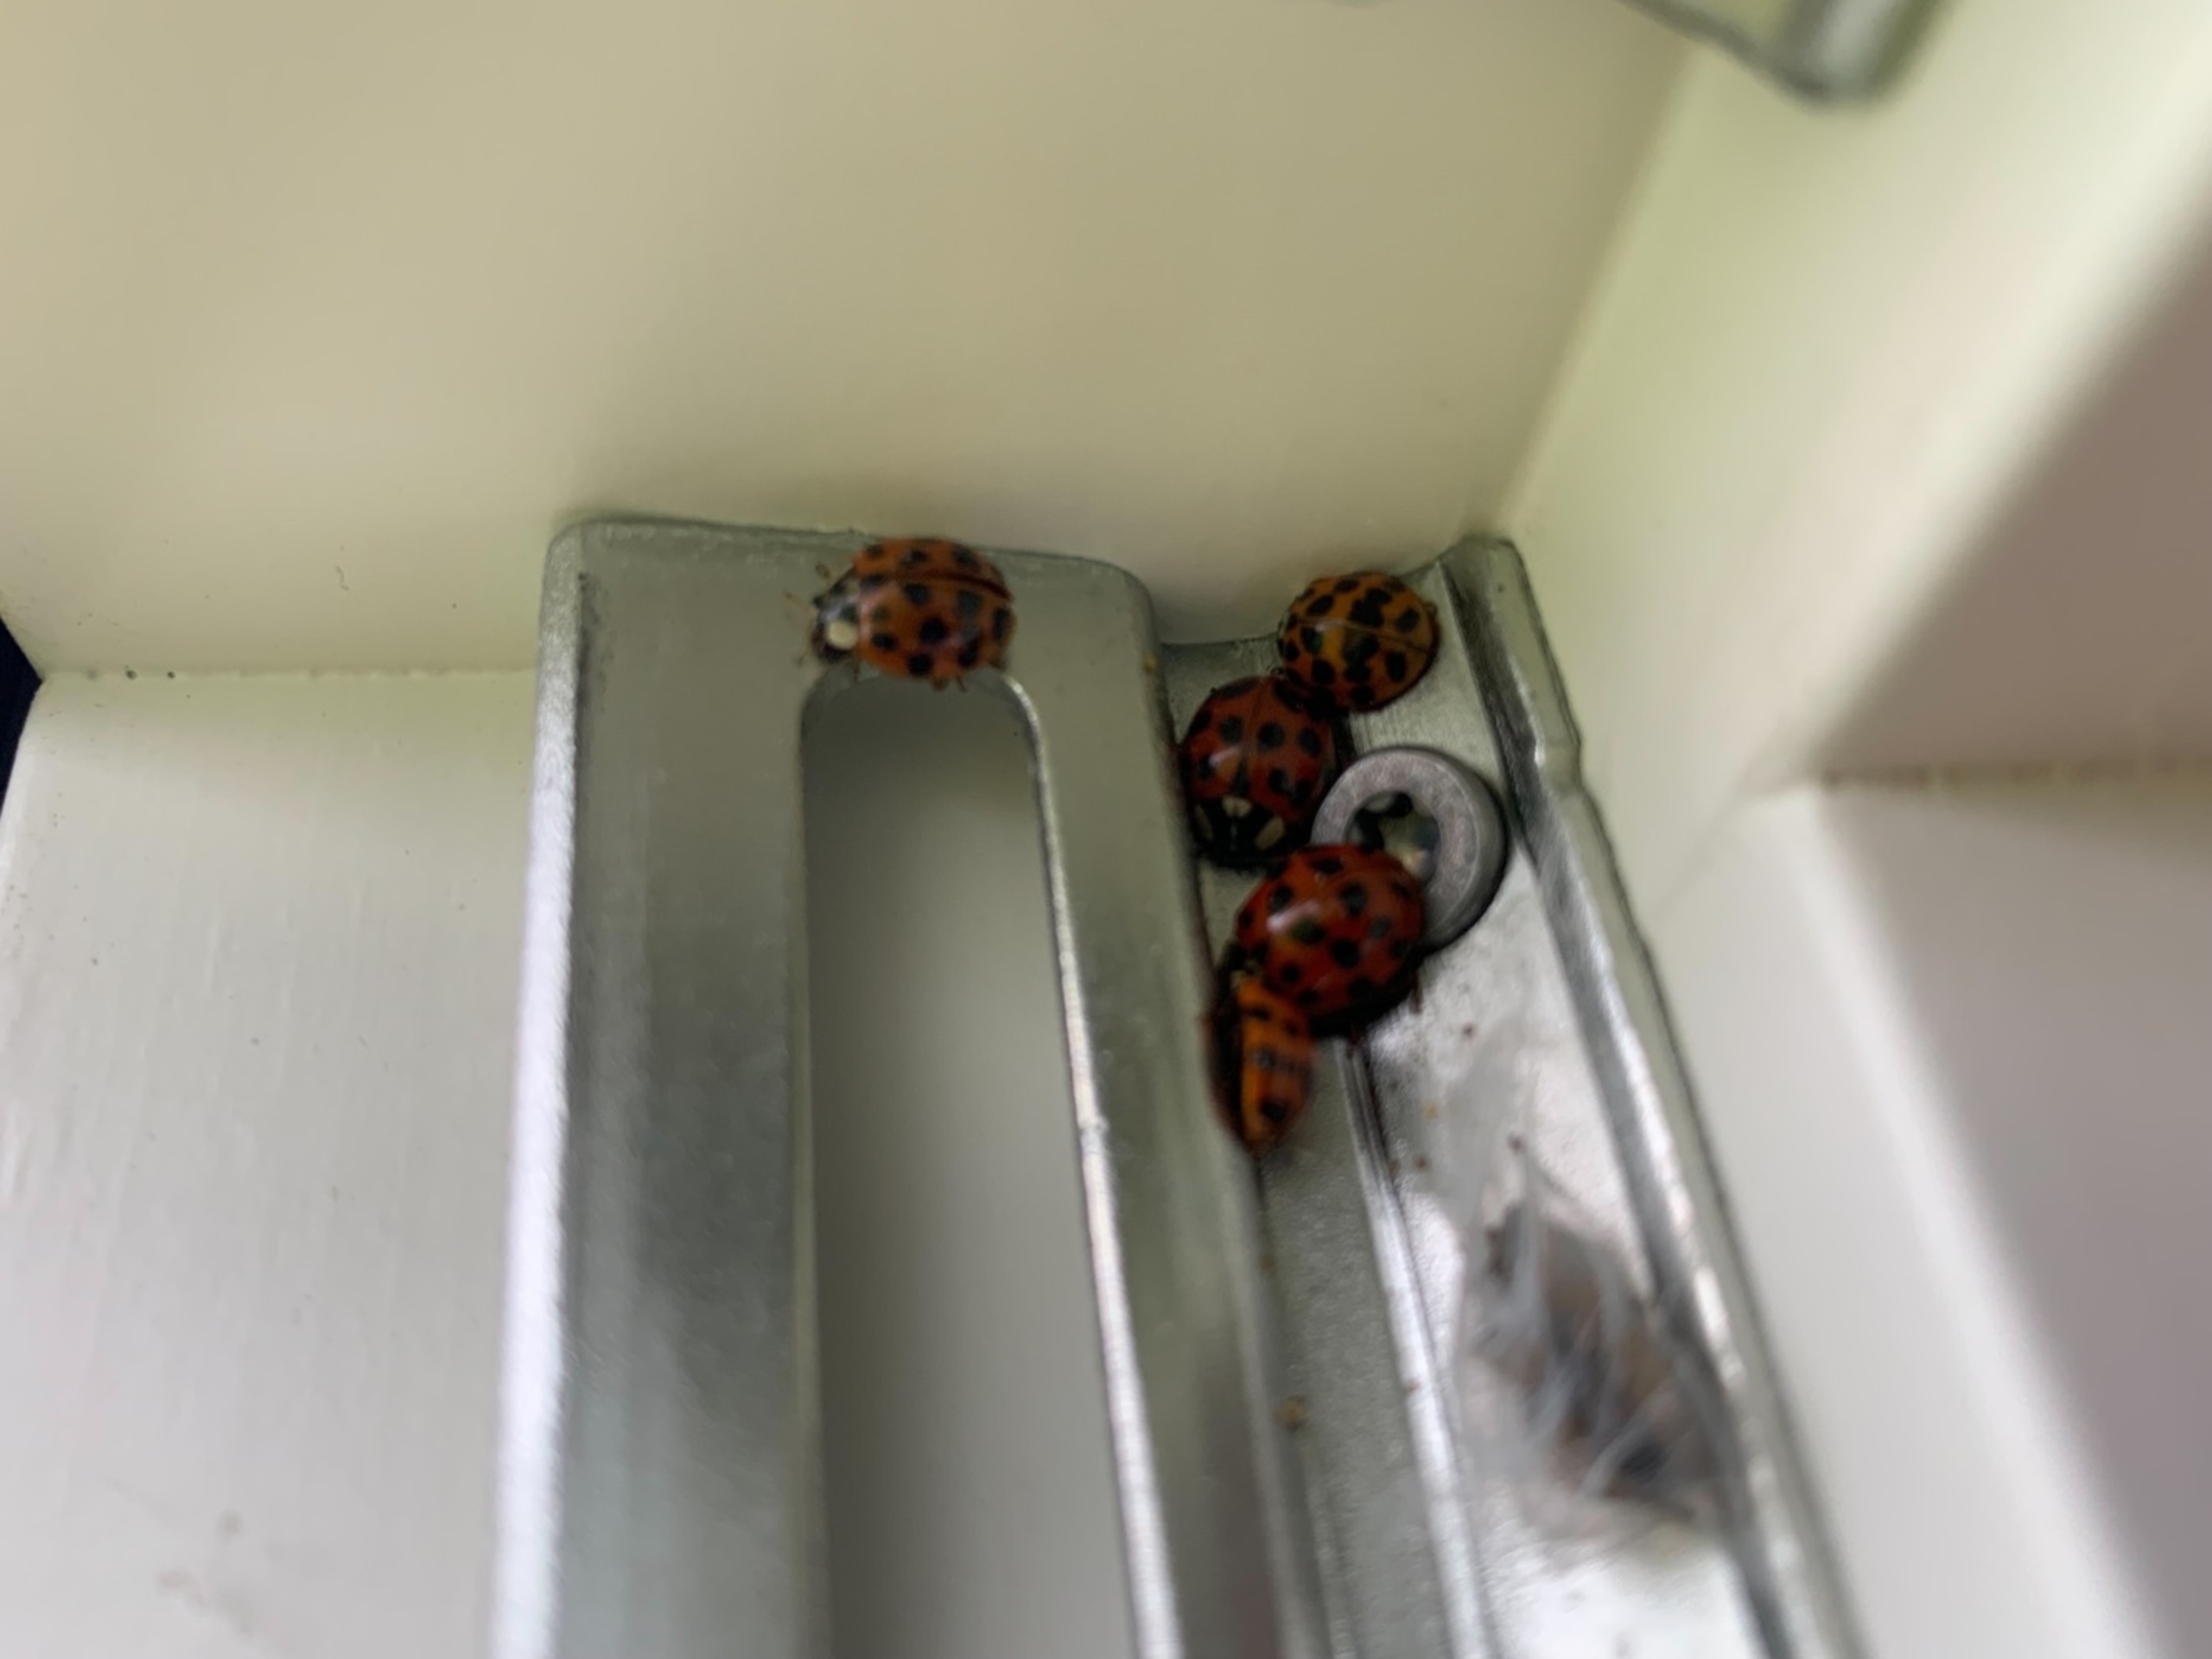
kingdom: Animalia
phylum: Arthropoda
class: Insecta
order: Coleoptera
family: Coccinellidae
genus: Harmonia
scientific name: Harmonia axyridis
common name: Harlekinmariehøne
